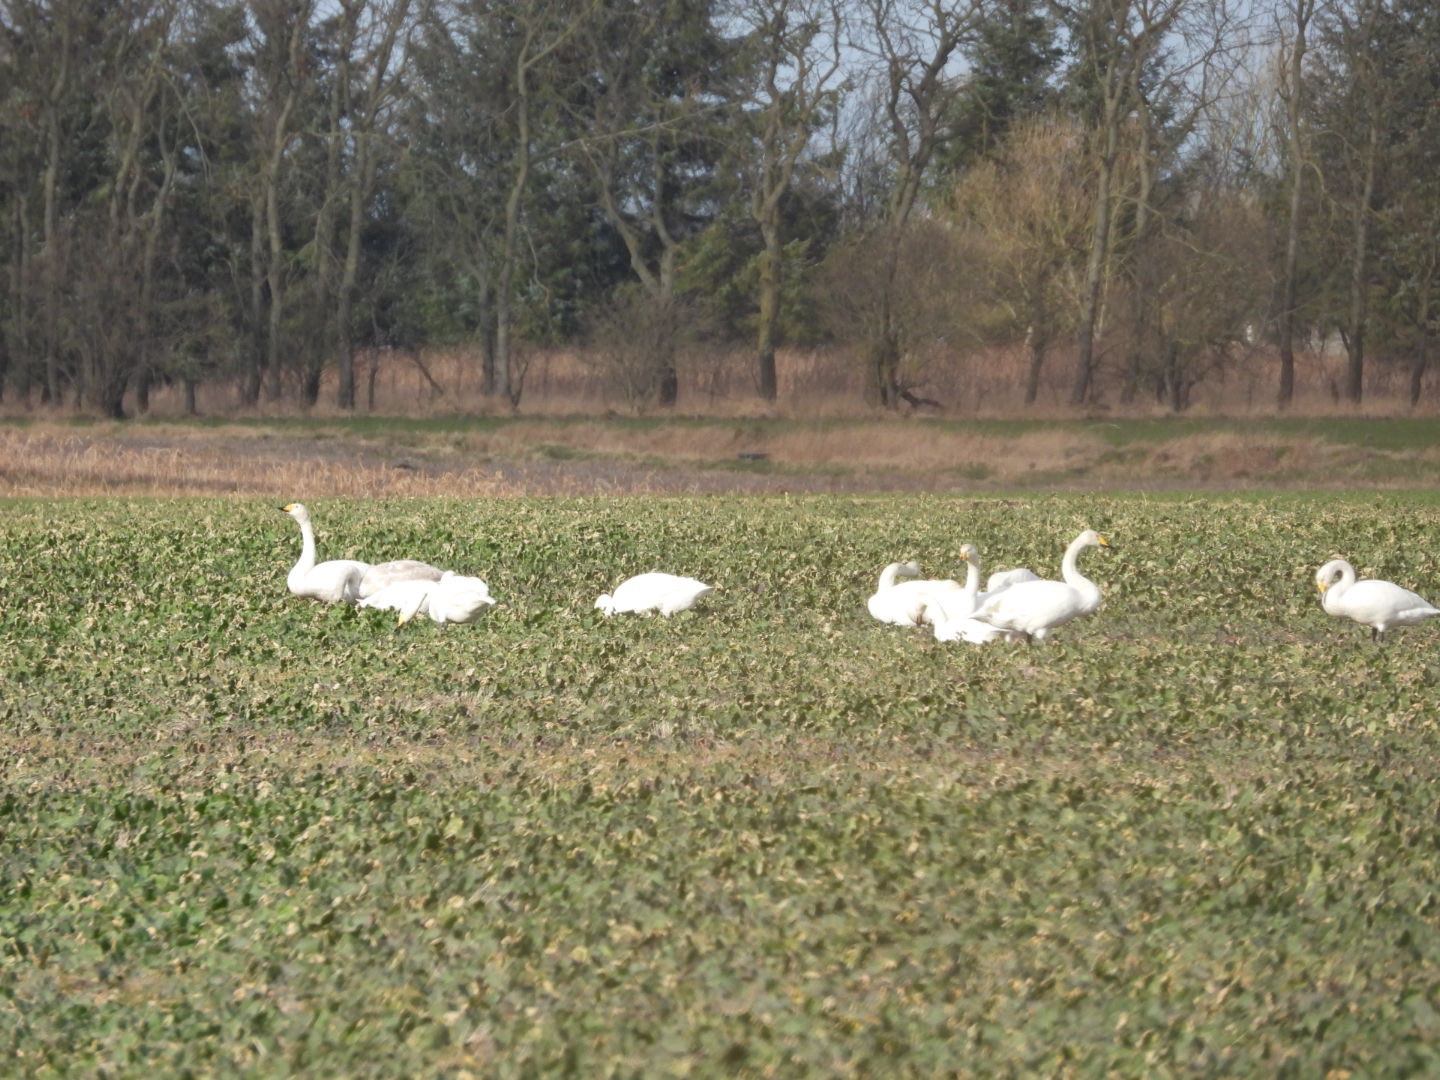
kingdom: Animalia
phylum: Chordata
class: Aves
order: Anseriformes
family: Anatidae
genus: Cygnus
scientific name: Cygnus cygnus
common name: Sangsvane
